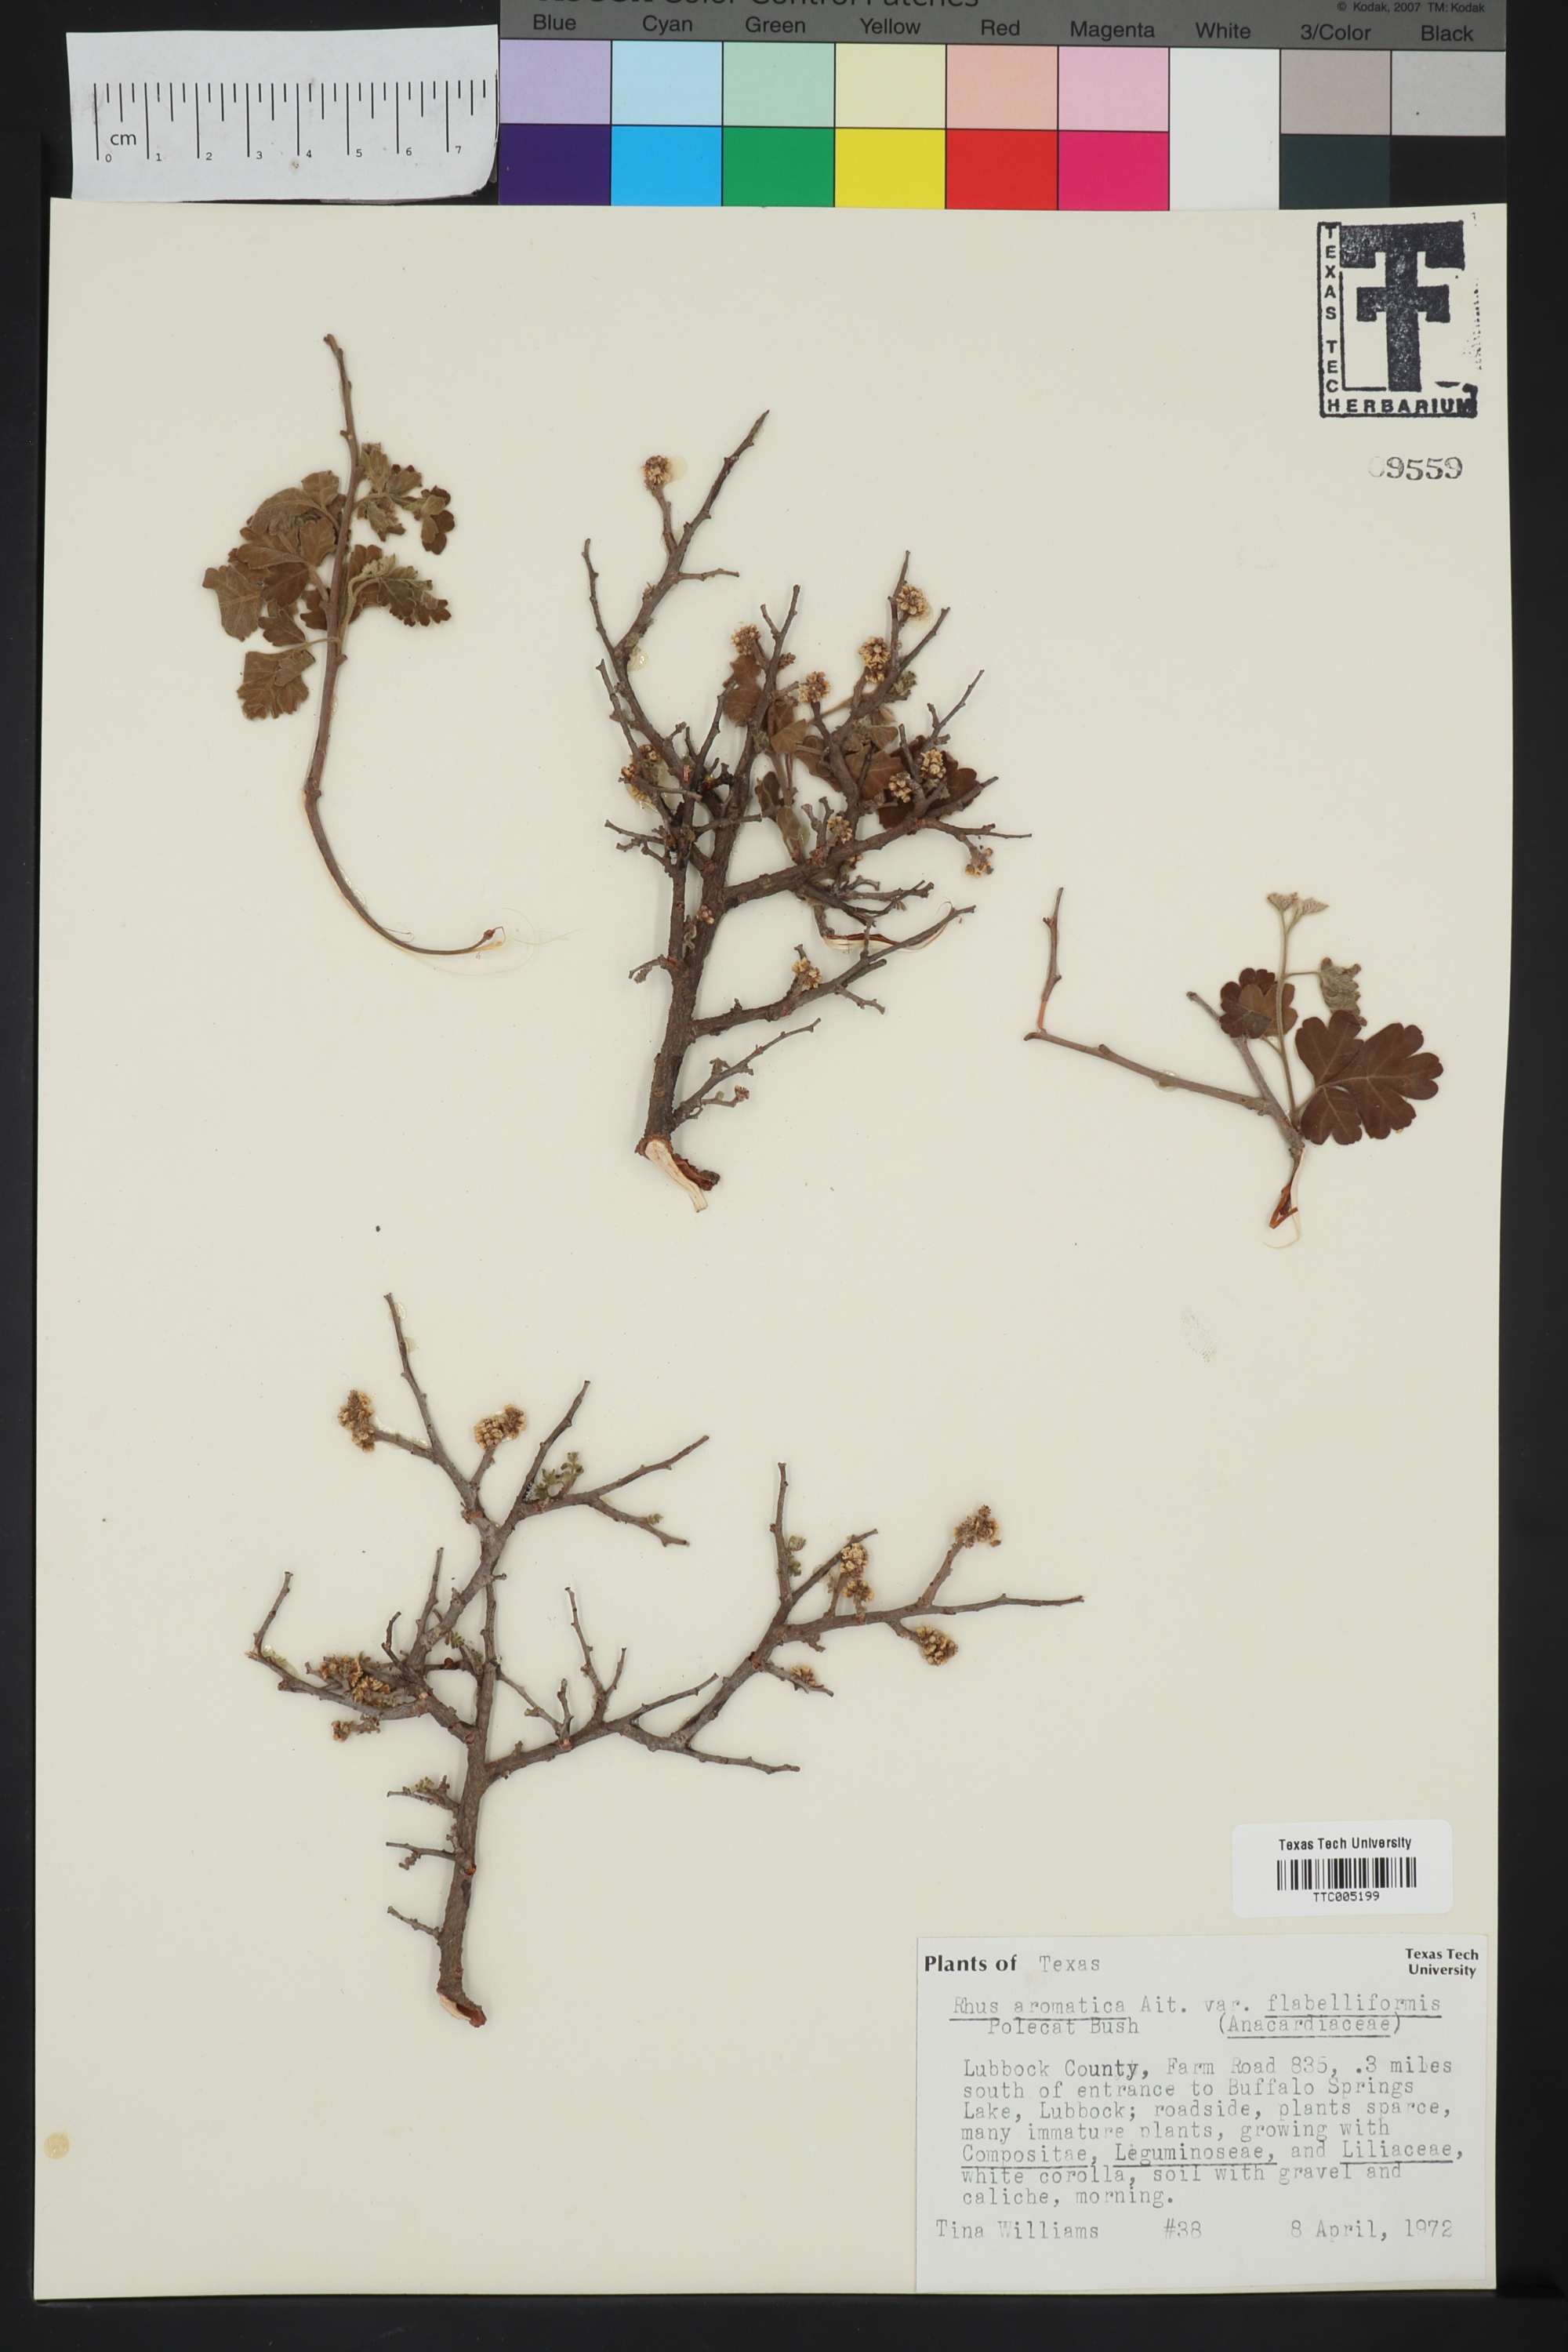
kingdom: Plantae
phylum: Tracheophyta
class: Magnoliopsida
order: Sapindales
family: Anacardiaceae
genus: Rhus
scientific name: Rhus trilobata
